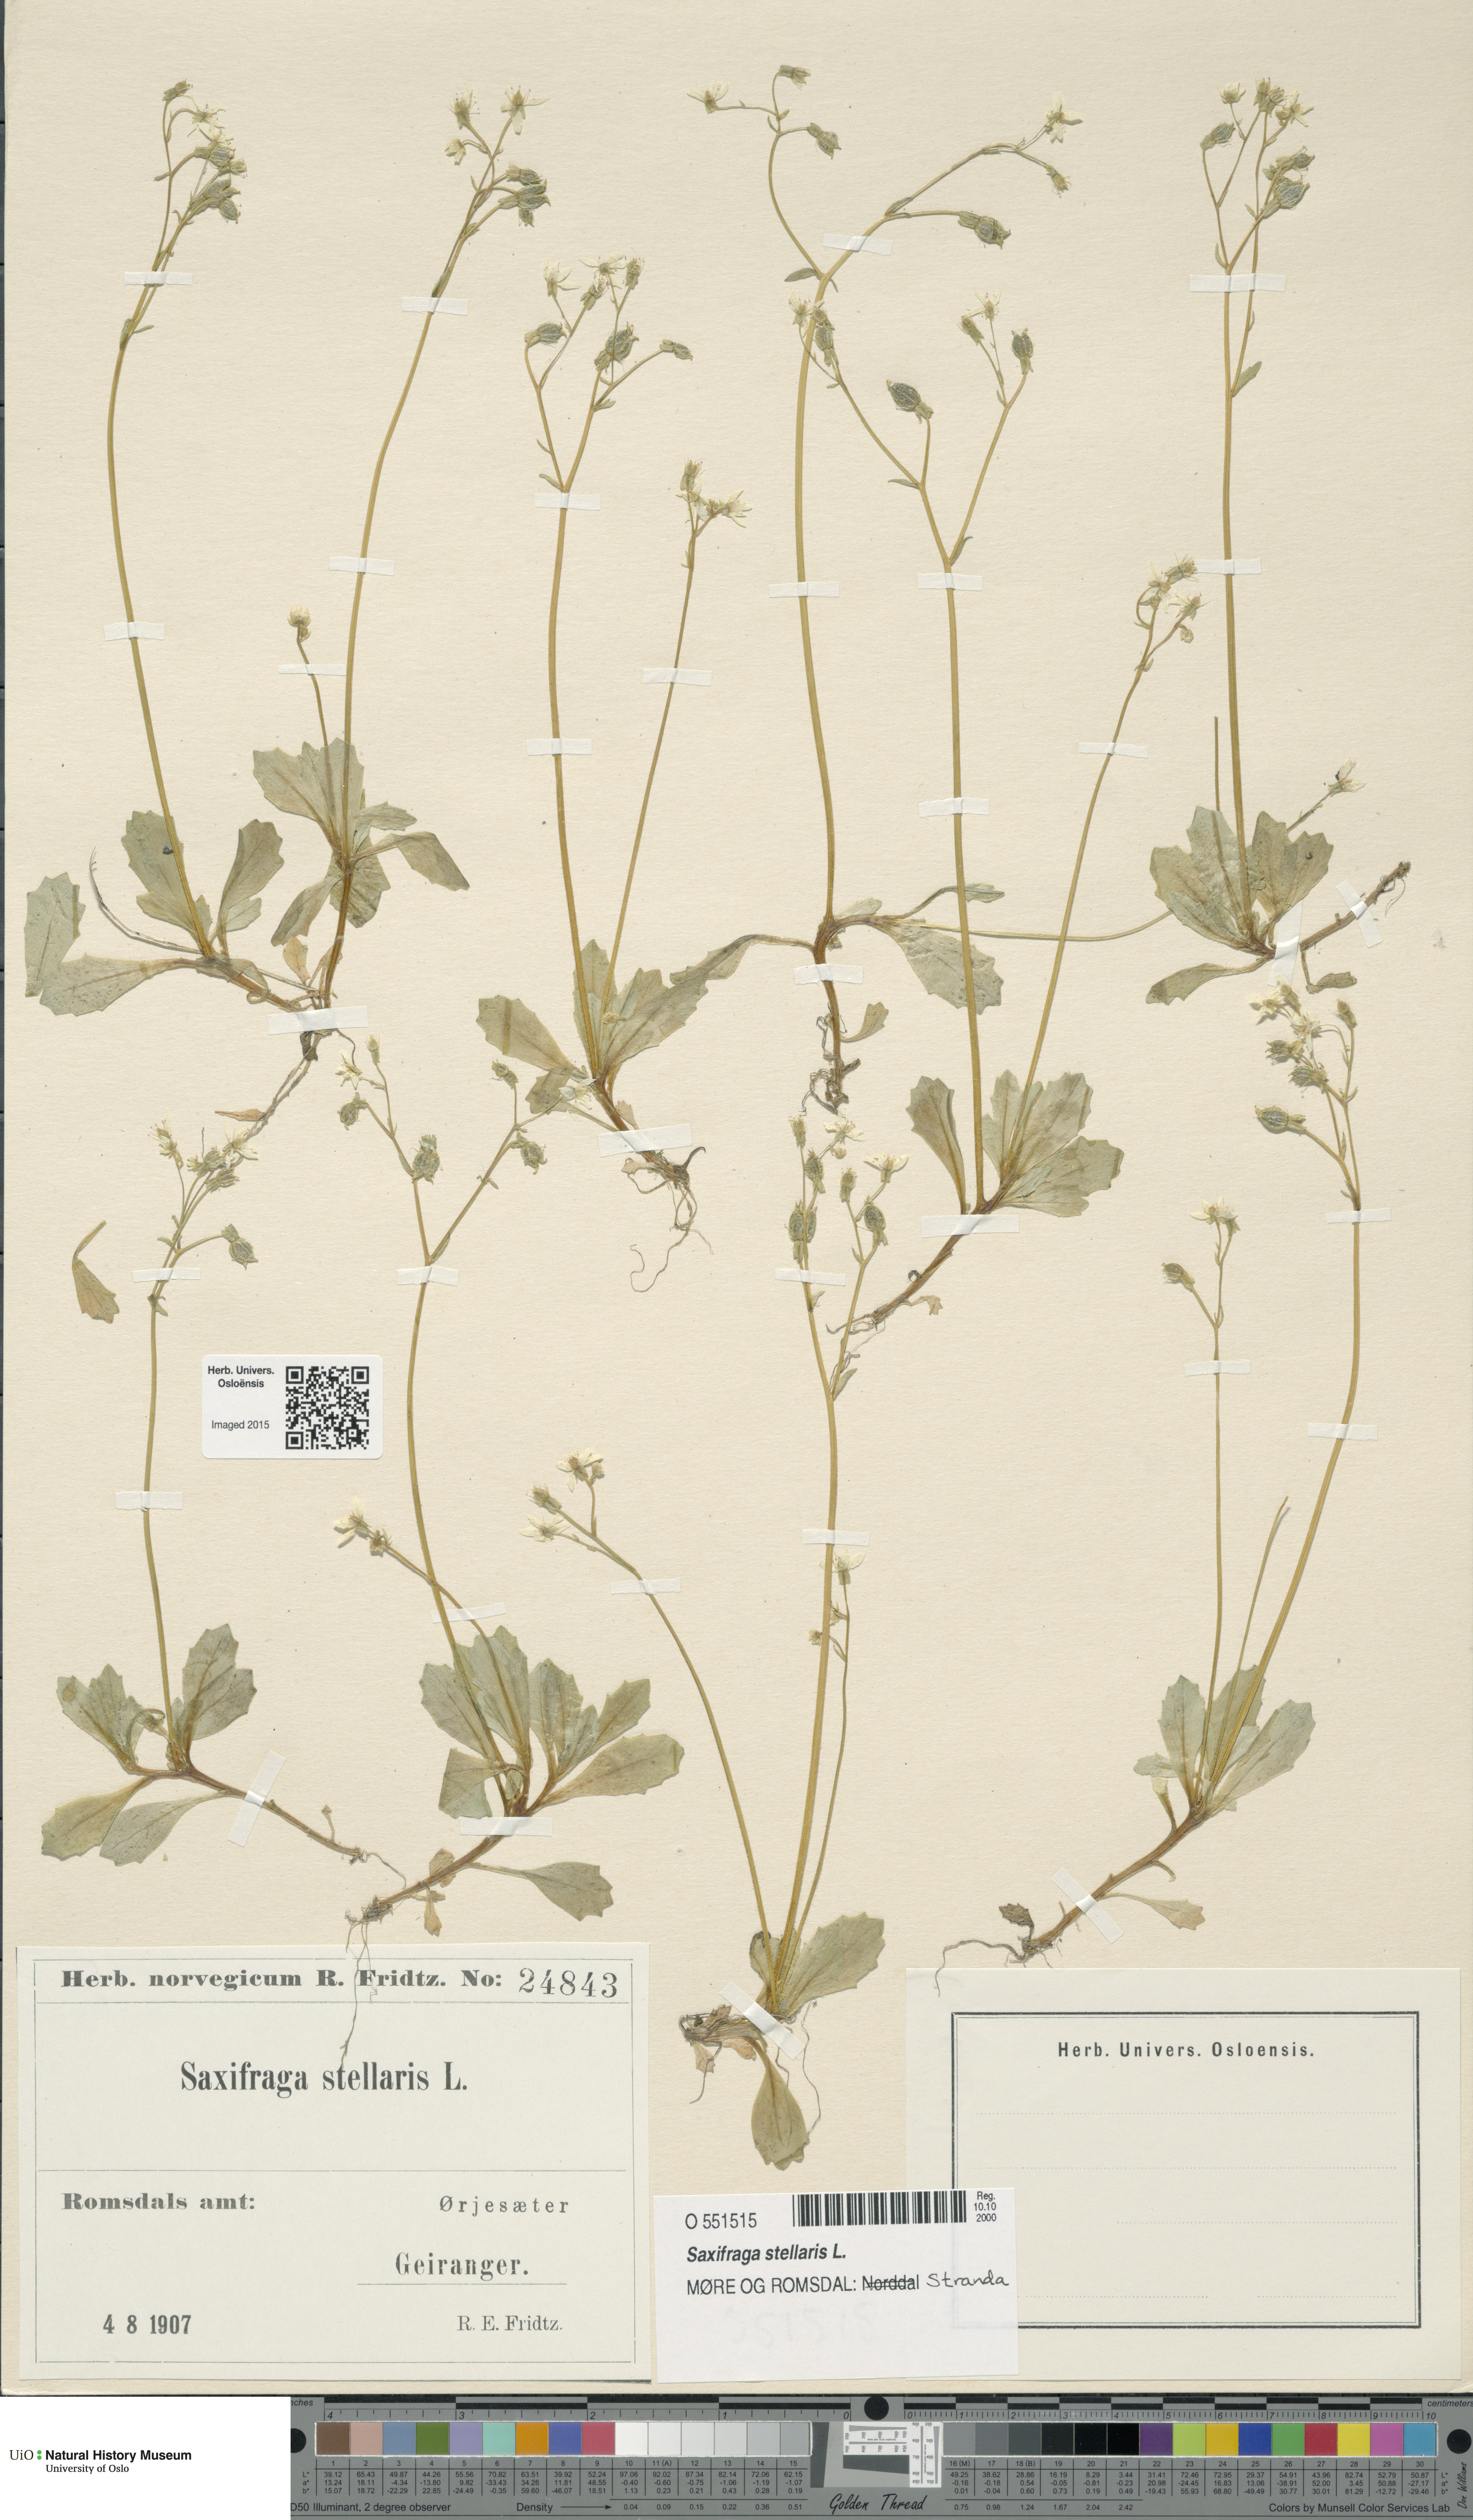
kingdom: Plantae
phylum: Tracheophyta
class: Magnoliopsida
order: Saxifragales
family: Saxifragaceae
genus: Micranthes
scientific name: Micranthes stellaris
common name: Starry saxifrage
